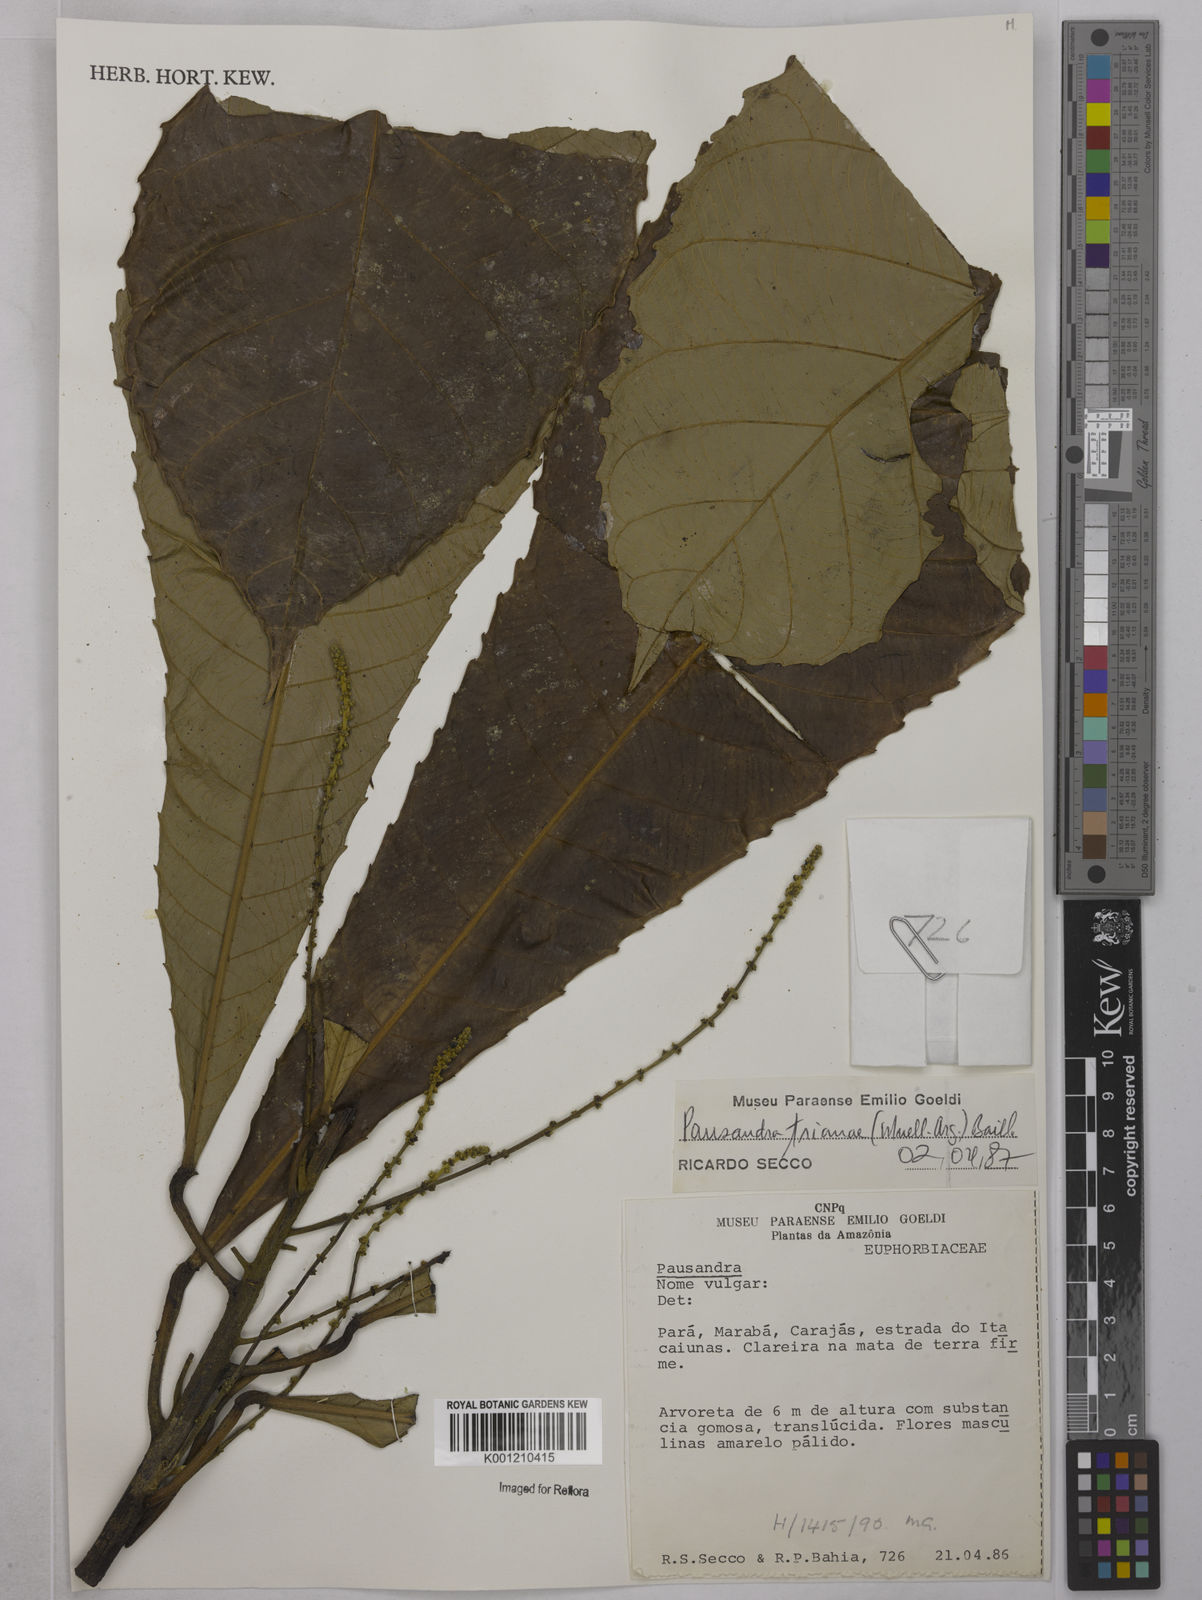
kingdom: Plantae
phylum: Tracheophyta
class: Magnoliopsida
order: Malpighiales
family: Euphorbiaceae
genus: Pausandra
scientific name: Pausandra
